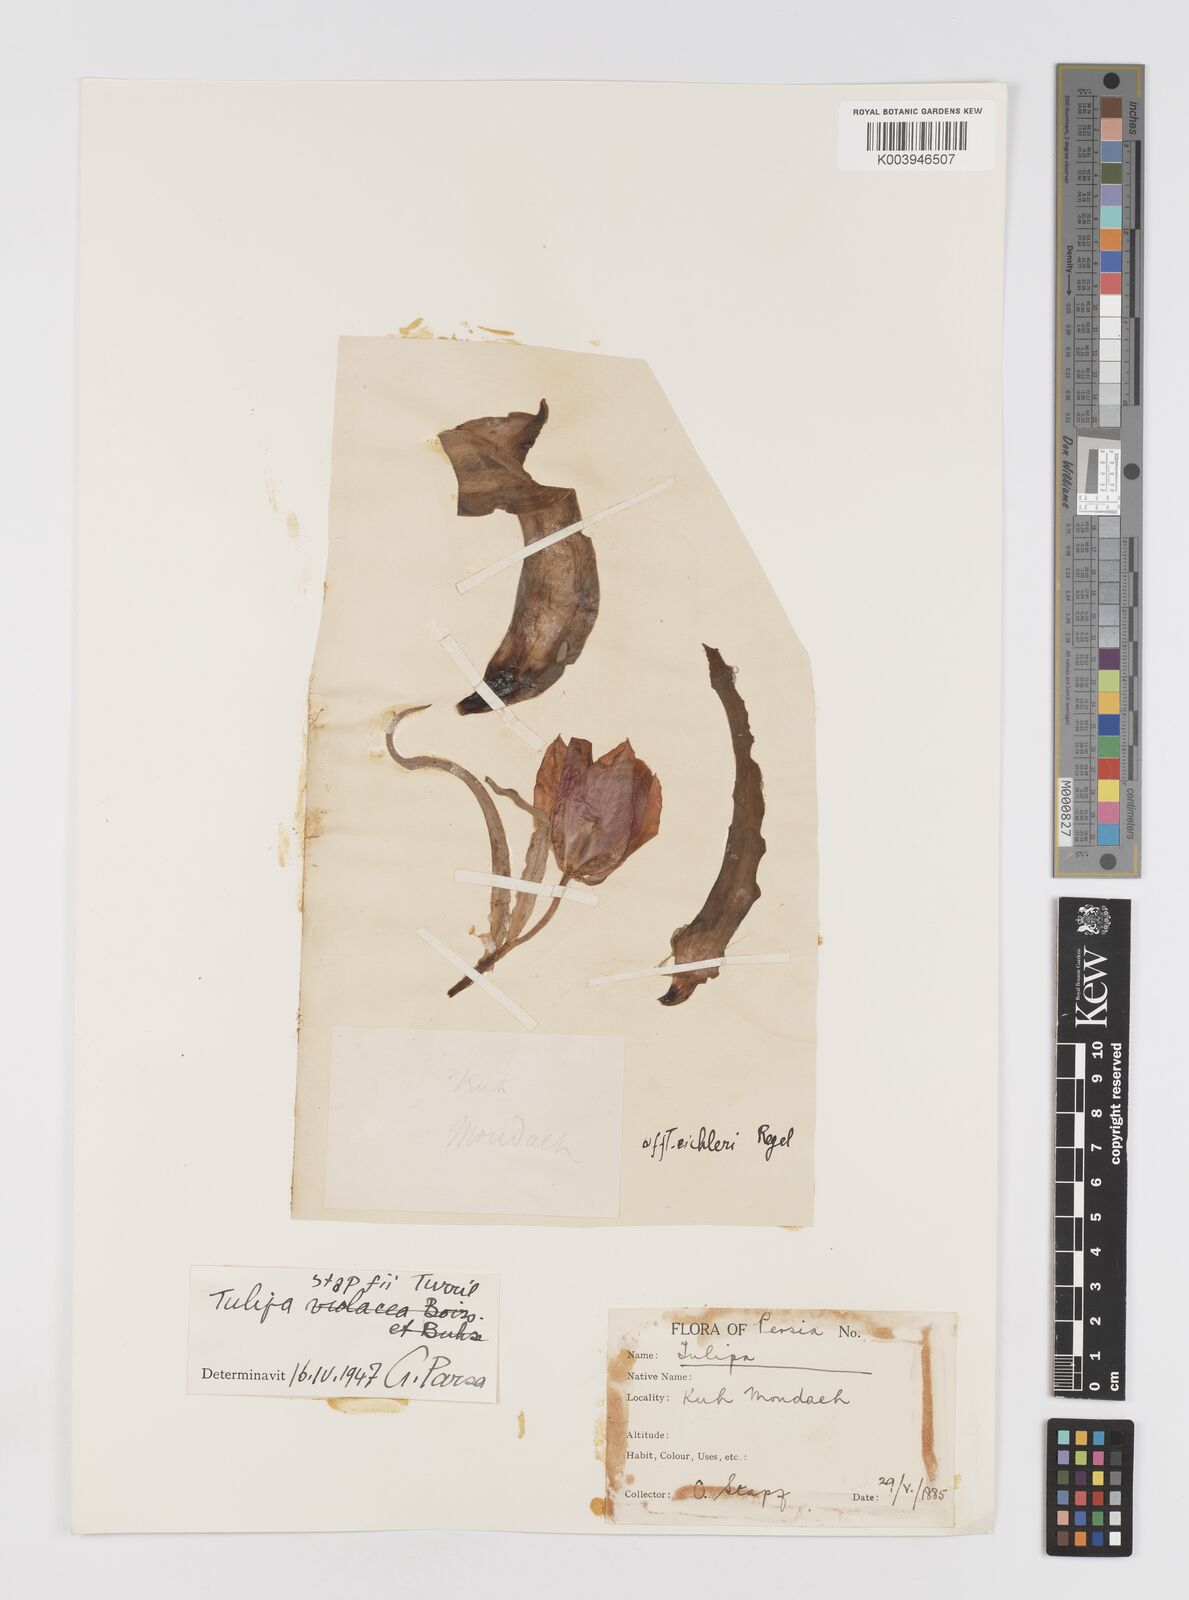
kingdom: Plantae
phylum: Tracheophyta
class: Liliopsida
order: Liliales
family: Liliaceae
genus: Tulipa
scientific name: Tulipa systola
